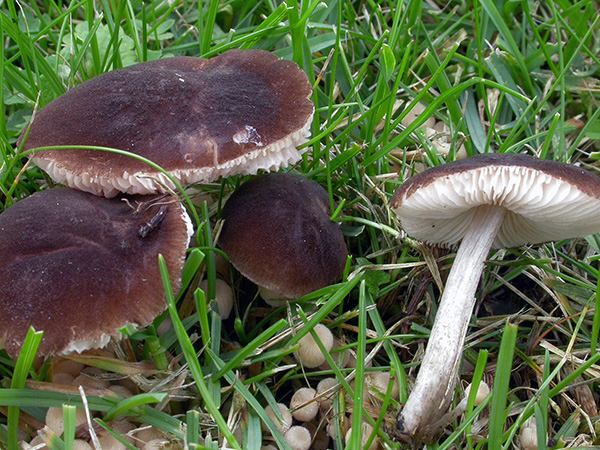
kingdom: Fungi
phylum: Basidiomycota
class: Agaricomycetes
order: Agaricales
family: Pluteaceae
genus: Pluteus
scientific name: Pluteus podospileus
